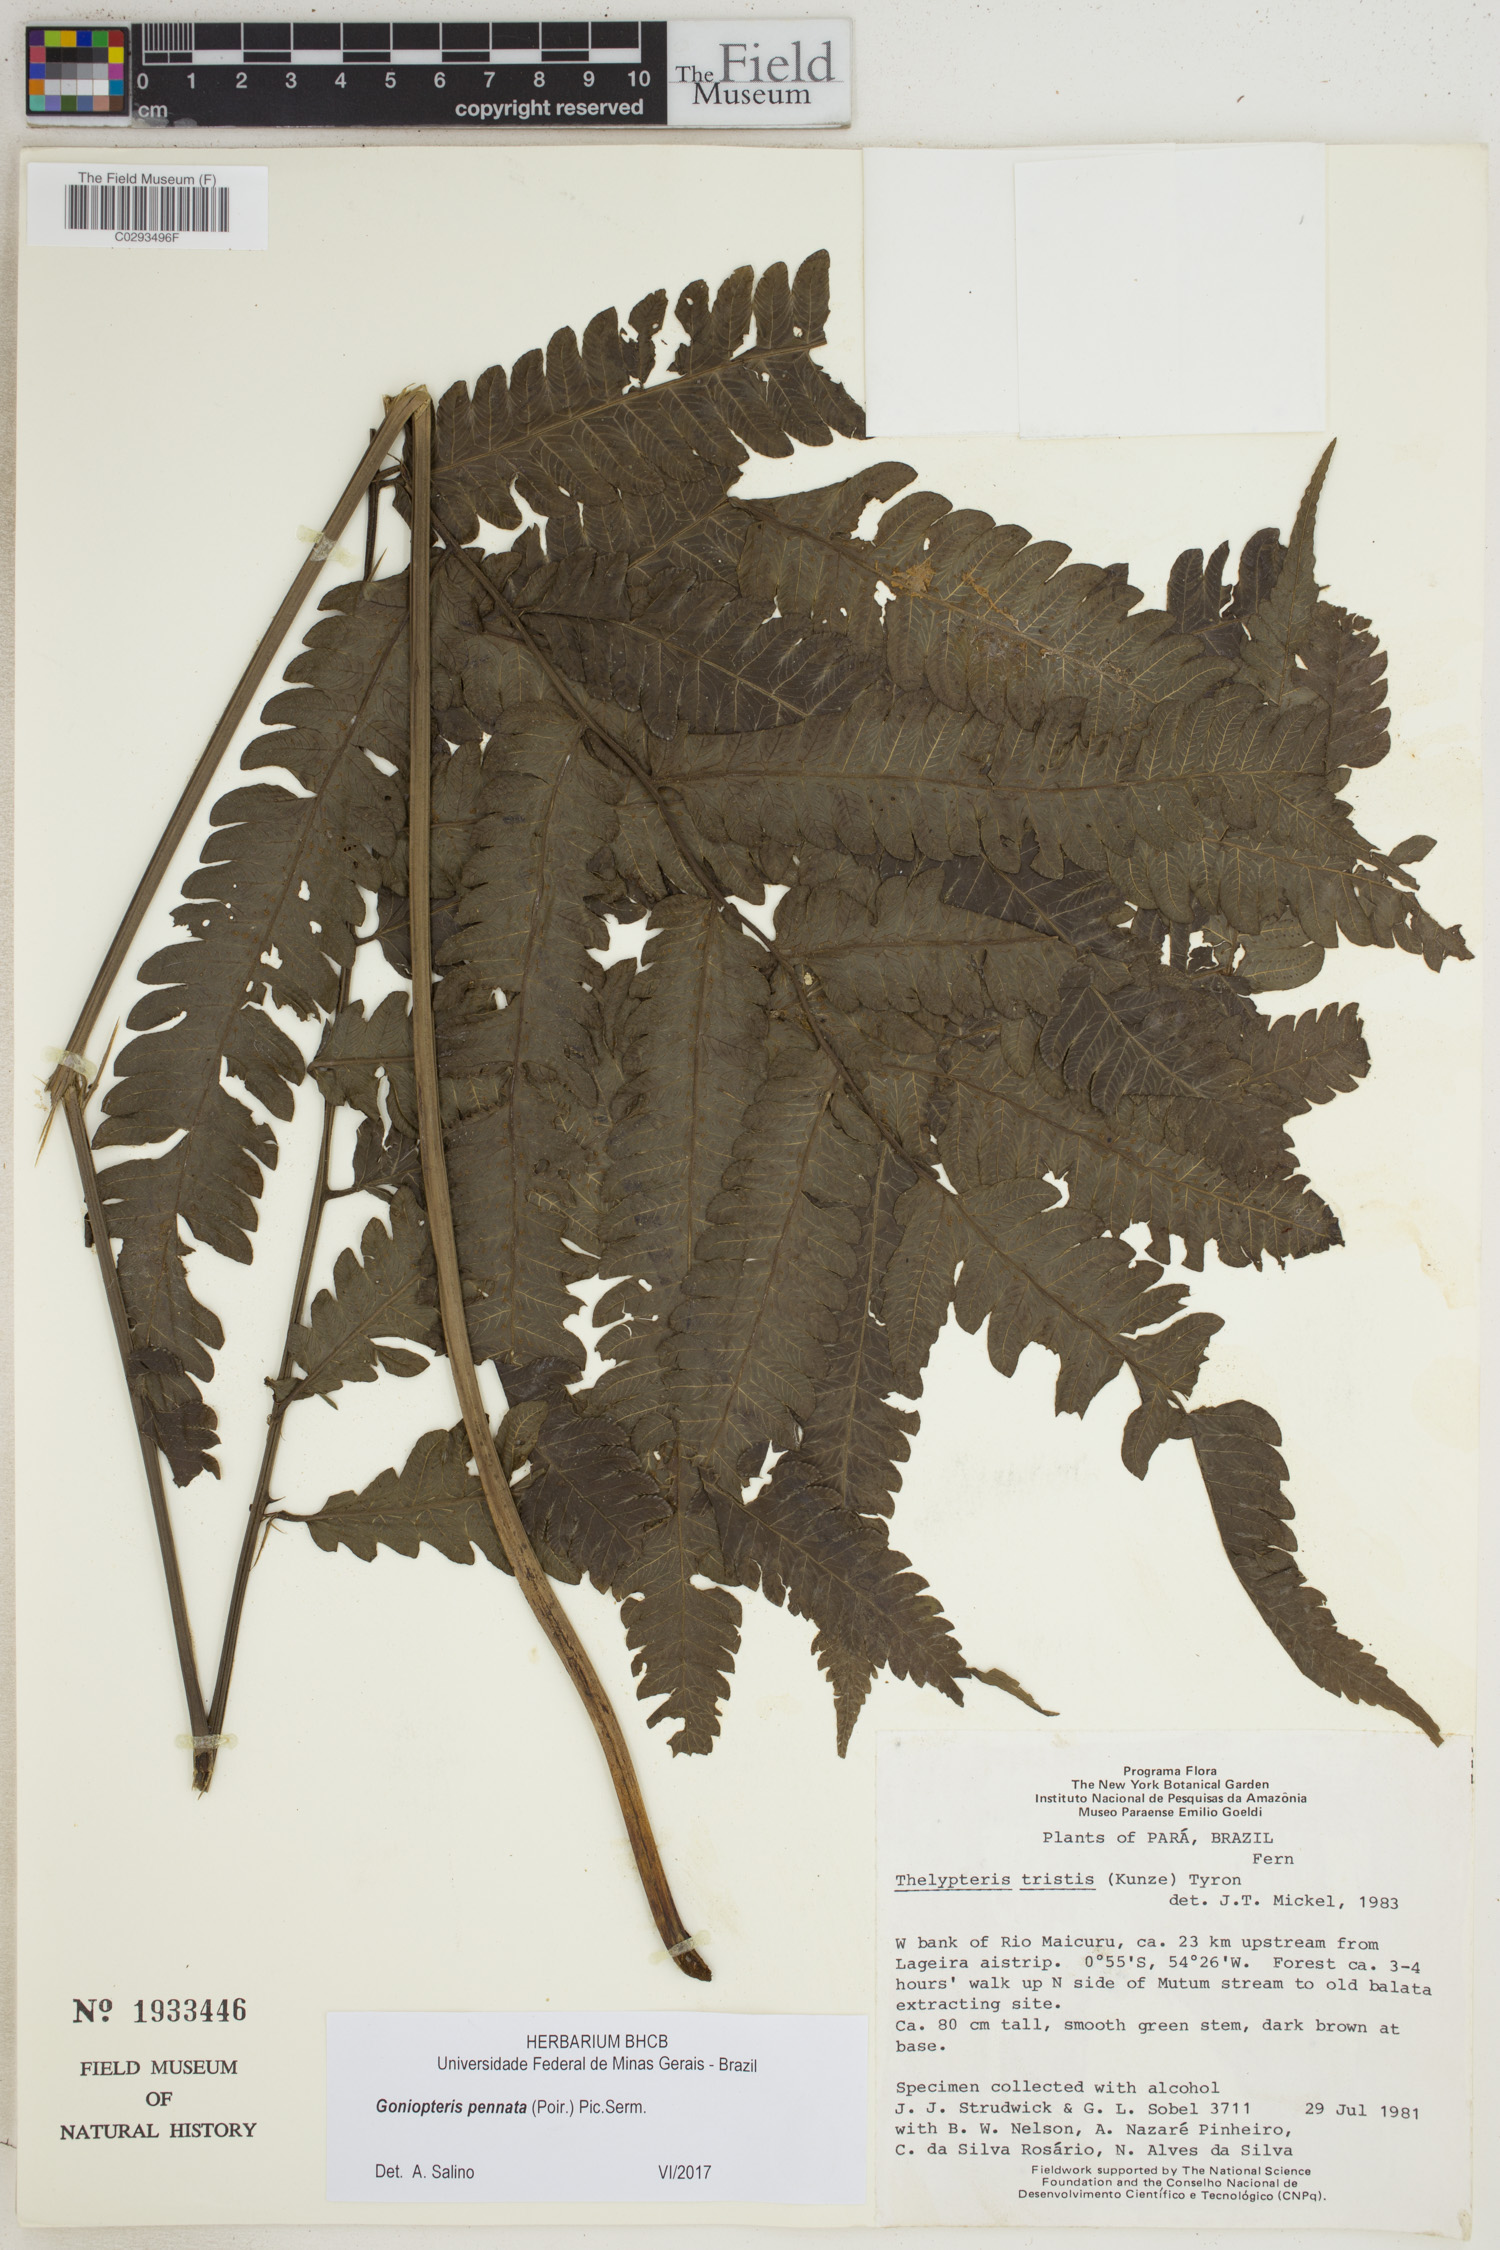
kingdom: Plantae
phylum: Tracheophyta
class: Polypodiopsida
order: Polypodiales
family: Thelypteridaceae
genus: Goniopteris
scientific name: Goniopteris pennata
